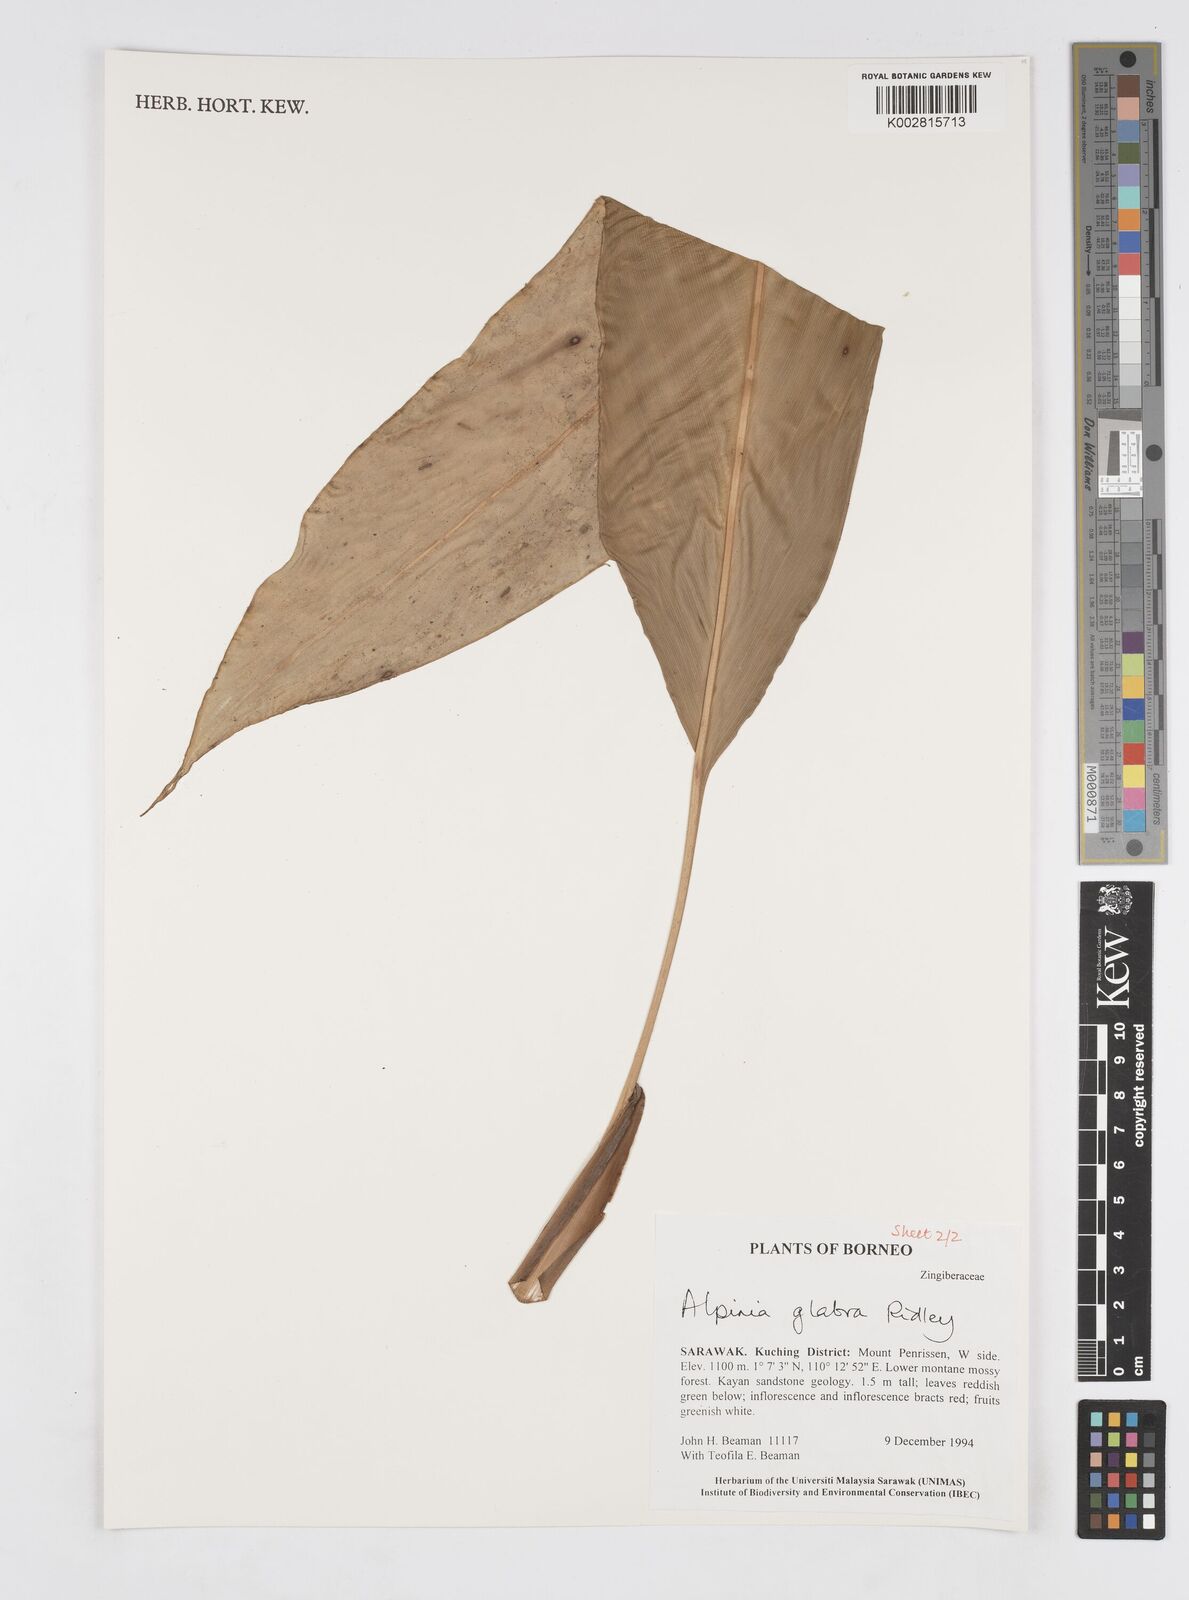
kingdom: Plantae
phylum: Tracheophyta
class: Liliopsida
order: Zingiberales
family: Zingiberaceae
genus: Alpinia
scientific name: Alpinia glabra
